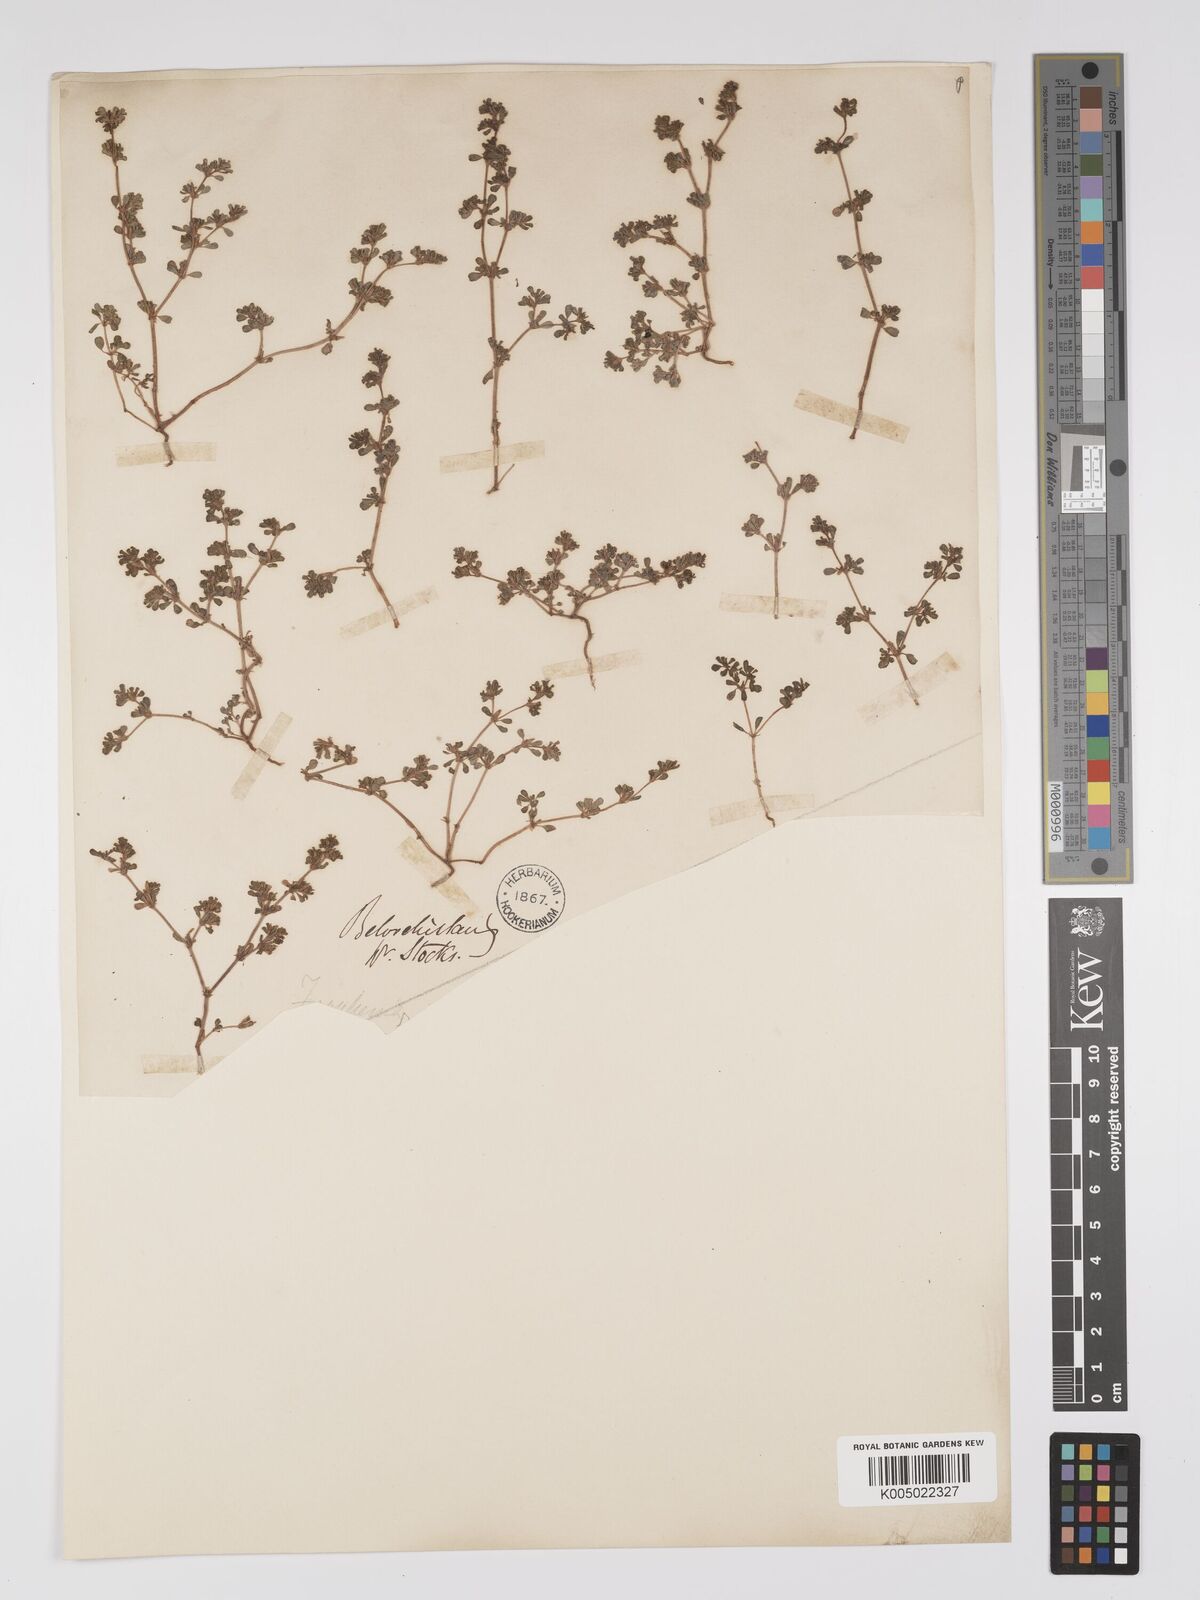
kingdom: Plantae
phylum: Tracheophyta
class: Magnoliopsida
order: Caryophyllales
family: Frankeniaceae
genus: Frankenia
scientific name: Frankenia pulverulenta
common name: European seaheath
